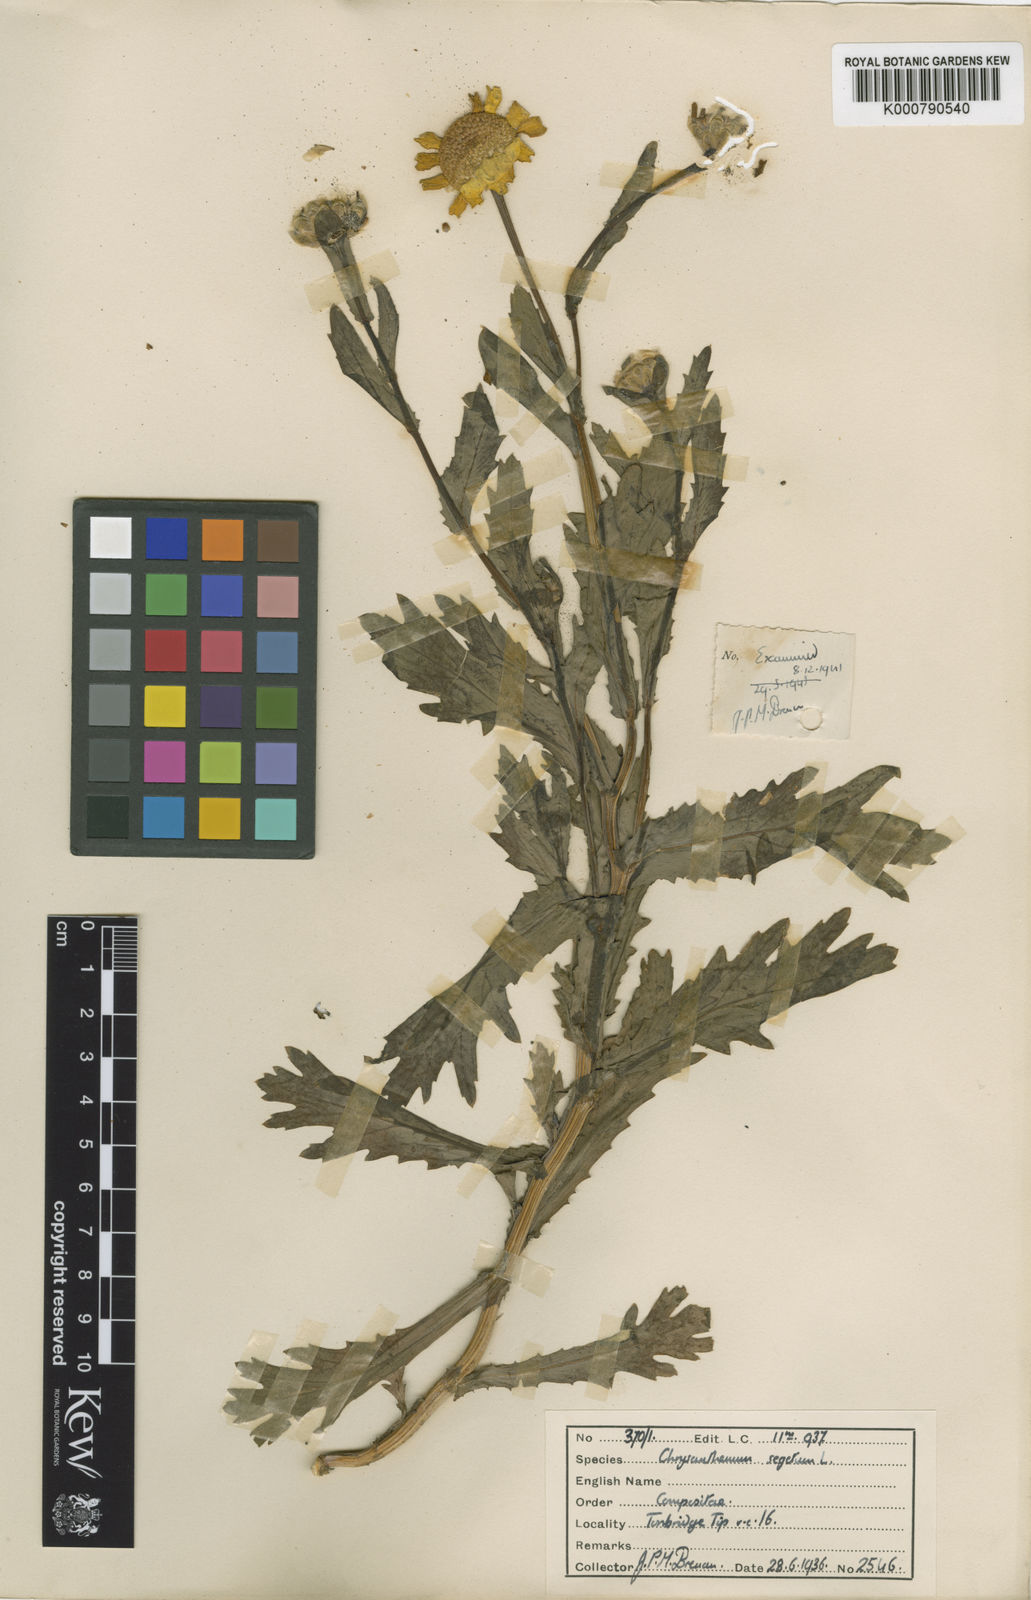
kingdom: Plantae
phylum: Tracheophyta
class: Magnoliopsida
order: Asterales
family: Asteraceae
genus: Glebionis
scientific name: Glebionis
